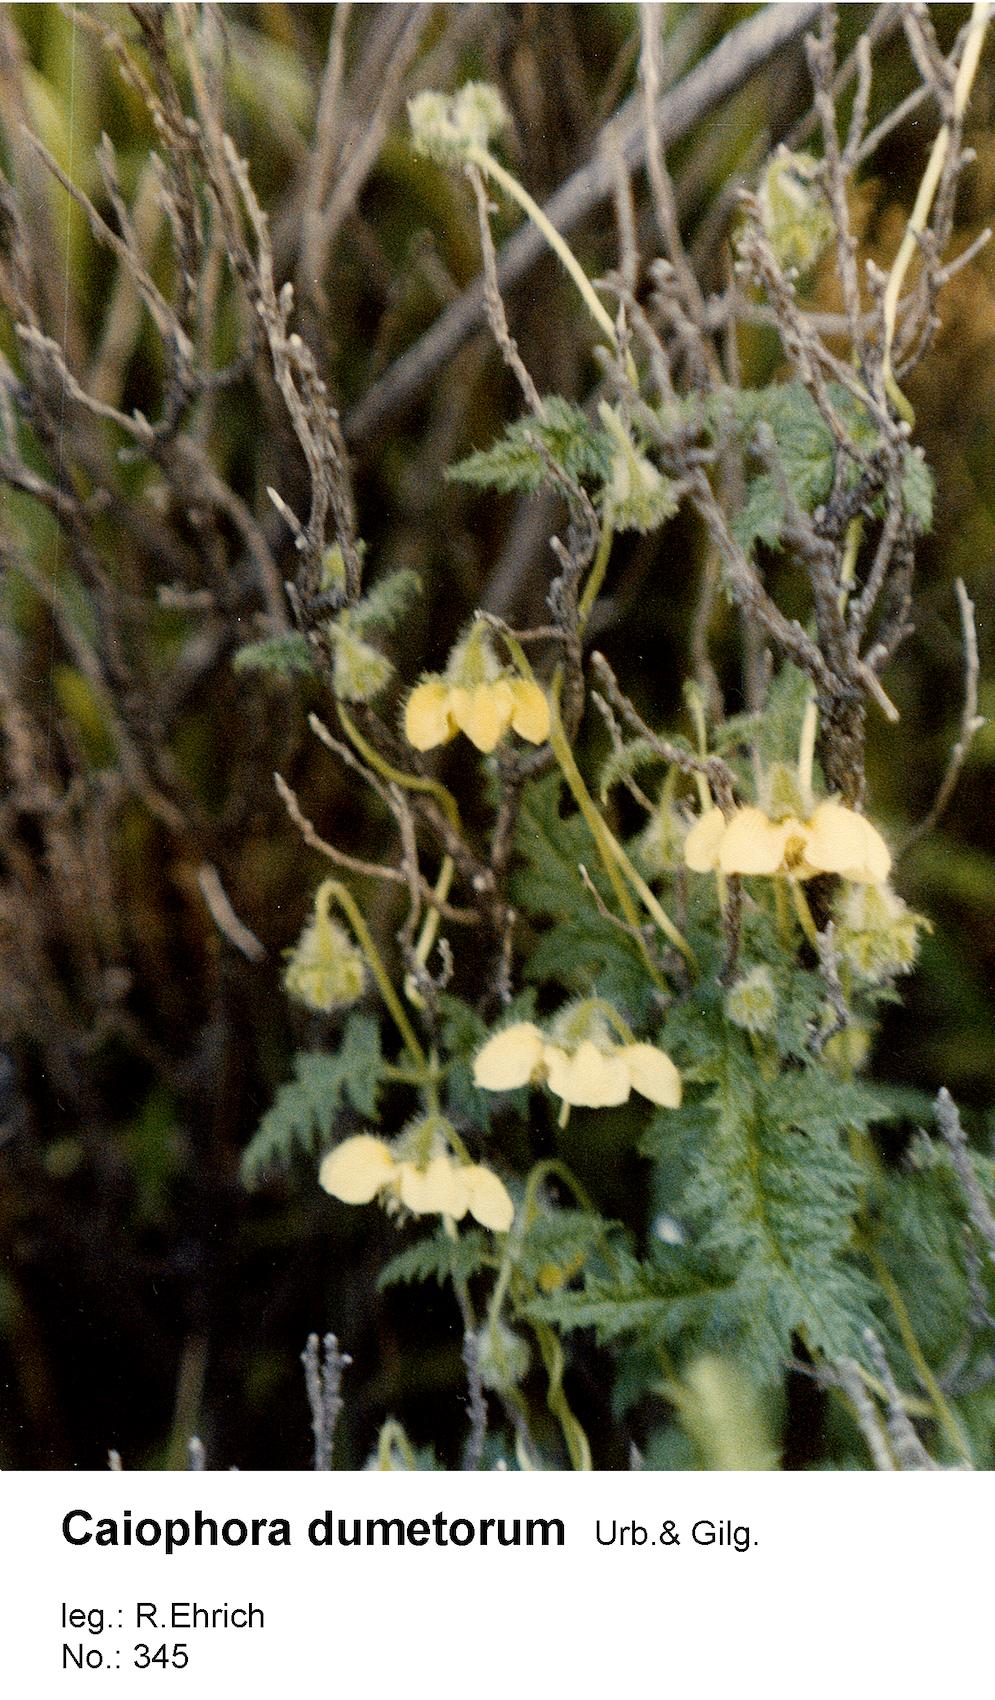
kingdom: Plantae
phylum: Tracheophyta
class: Magnoliopsida
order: Cornales
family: Loasaceae
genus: Caiophora
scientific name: Caiophora dumetorum
